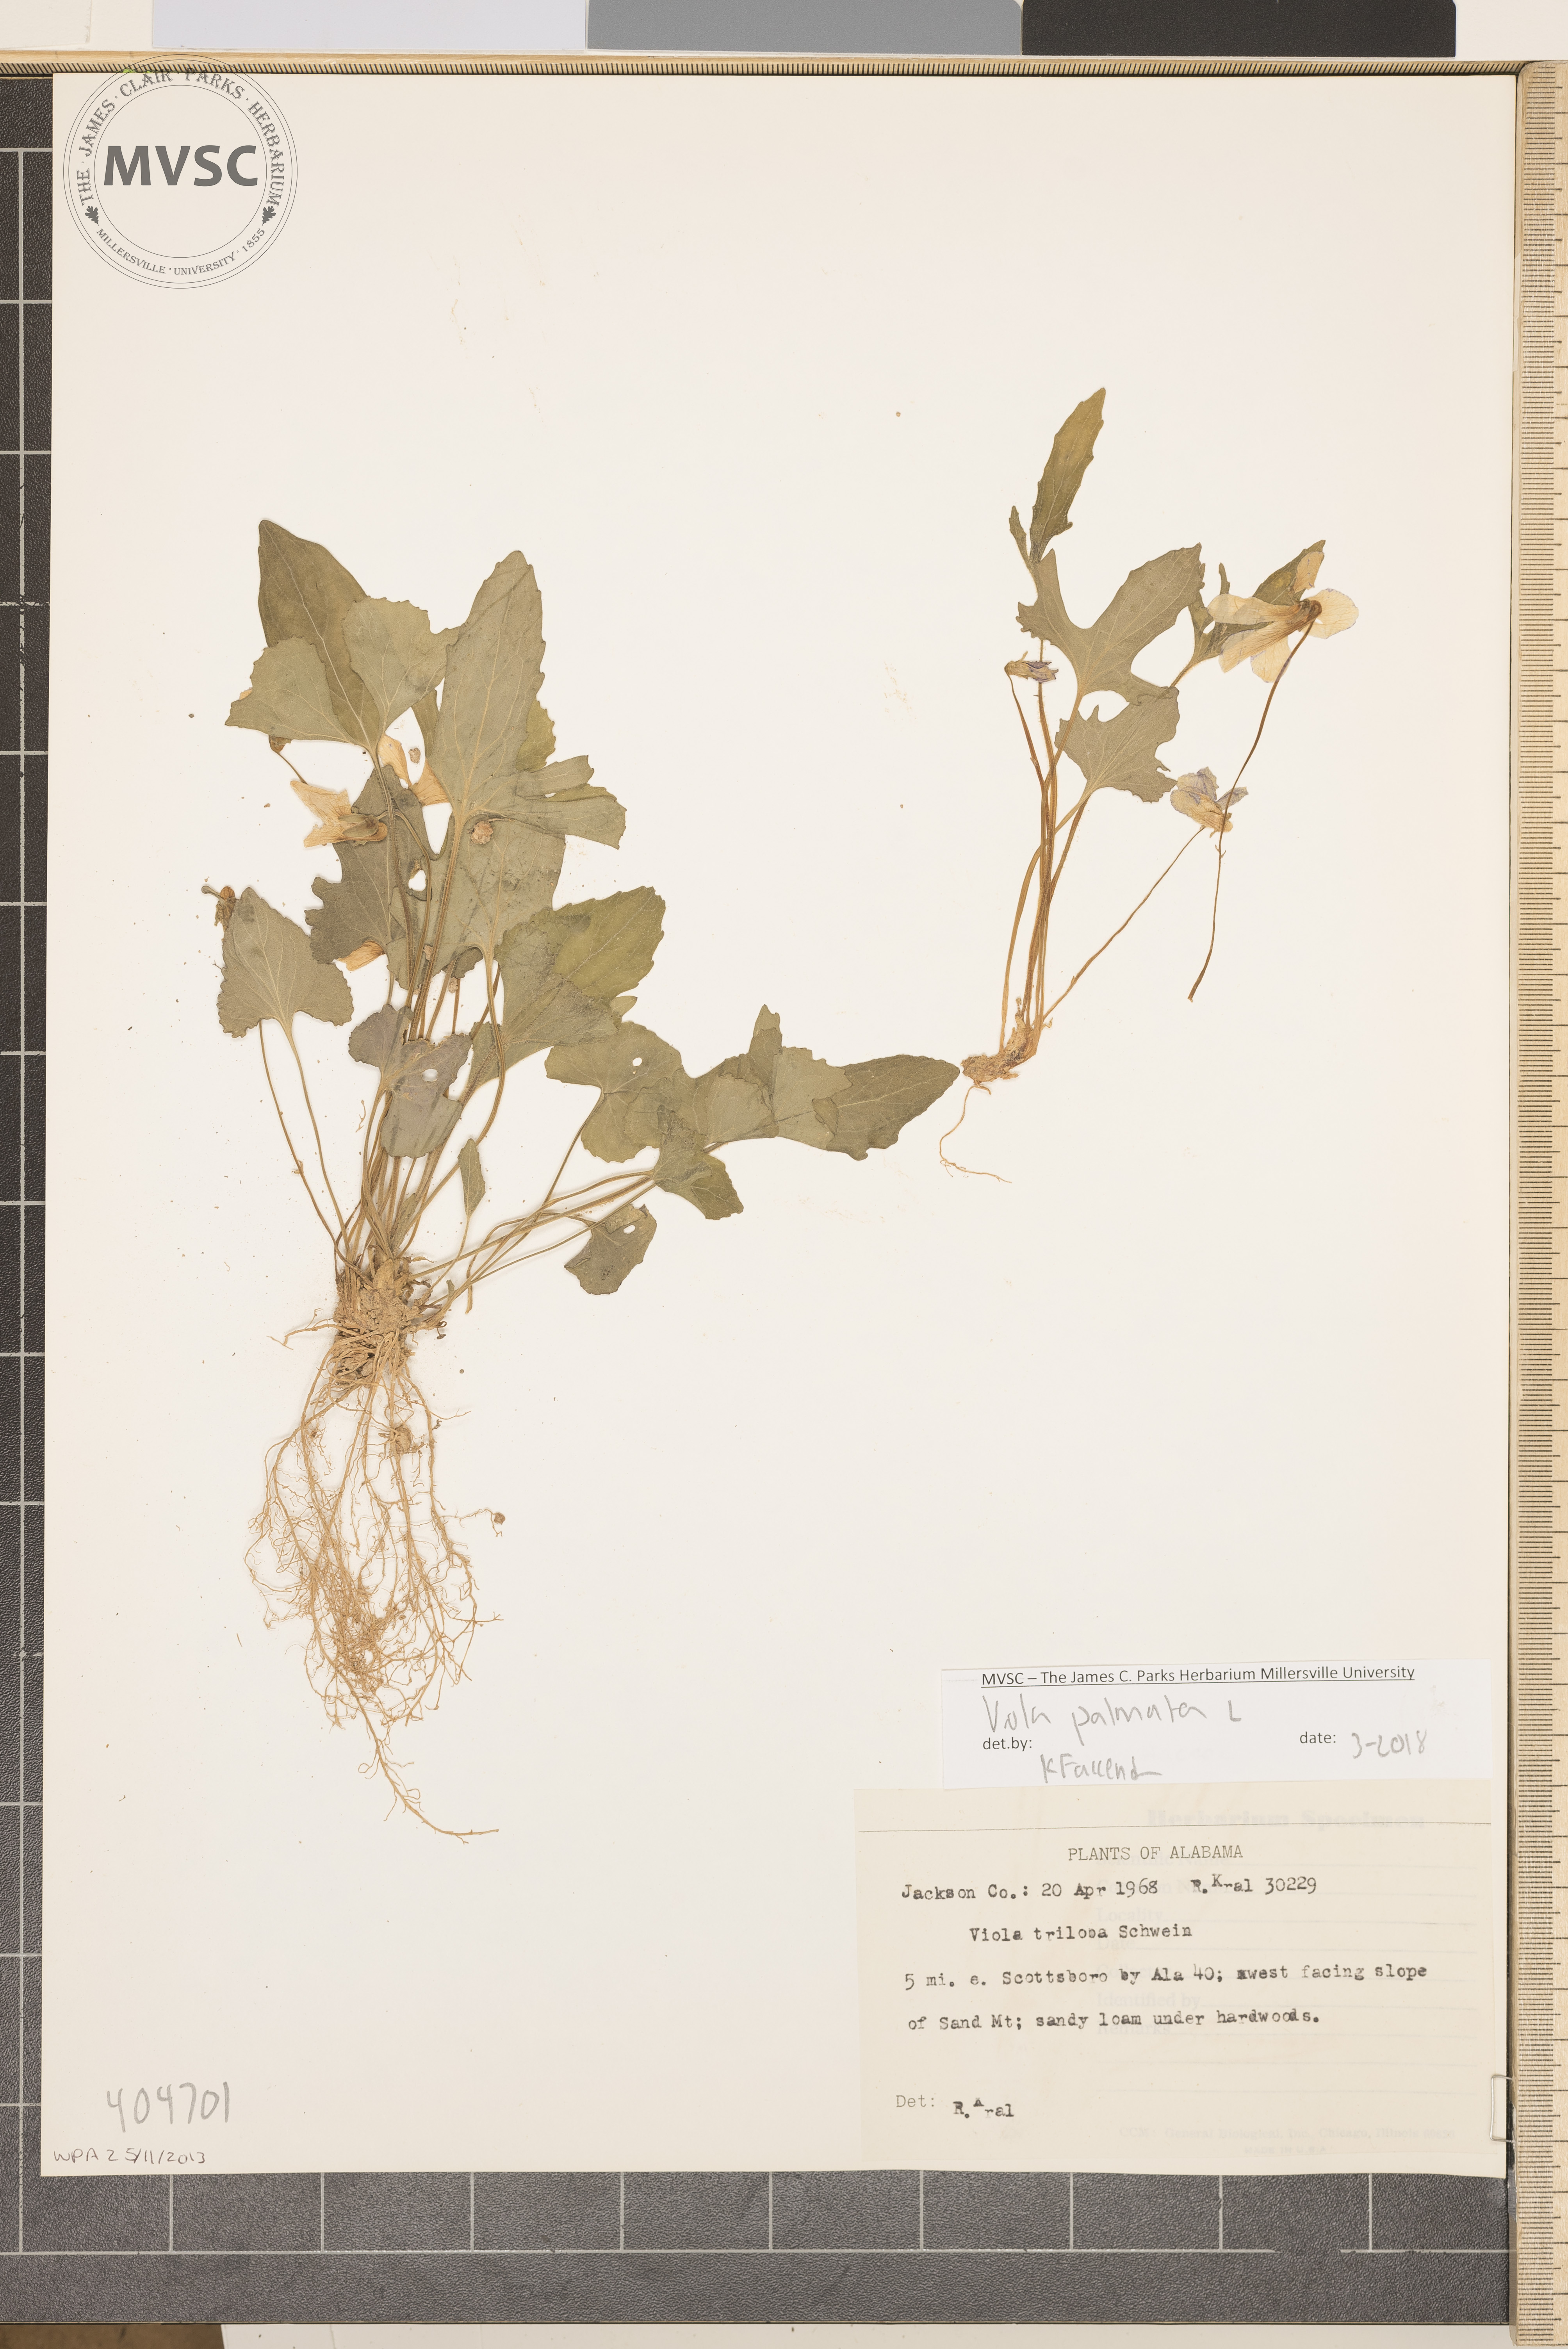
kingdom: Plantae
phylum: Tracheophyta
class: Magnoliopsida
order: Malpighiales
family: Violaceae
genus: Viola
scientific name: Viola palmata
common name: Early blue violet
